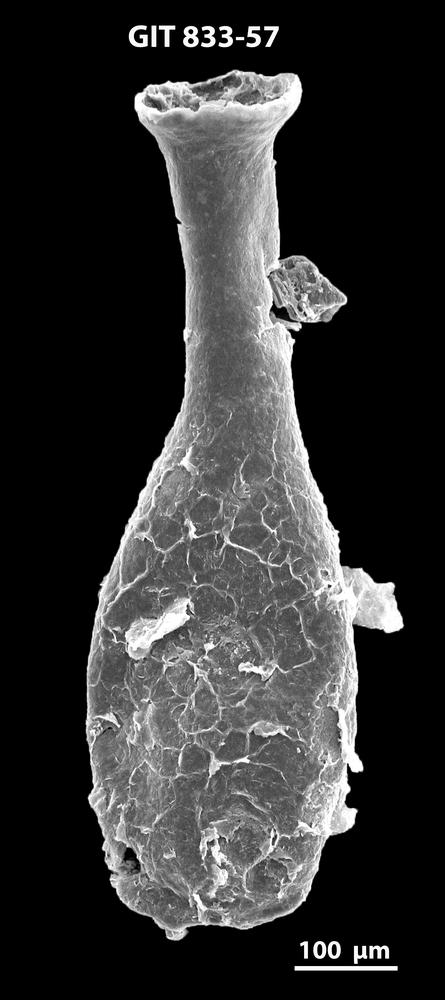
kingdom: Animalia
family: Lagenochitinidae
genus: Lagenochitina
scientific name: Lagenochitina megaesthonica
